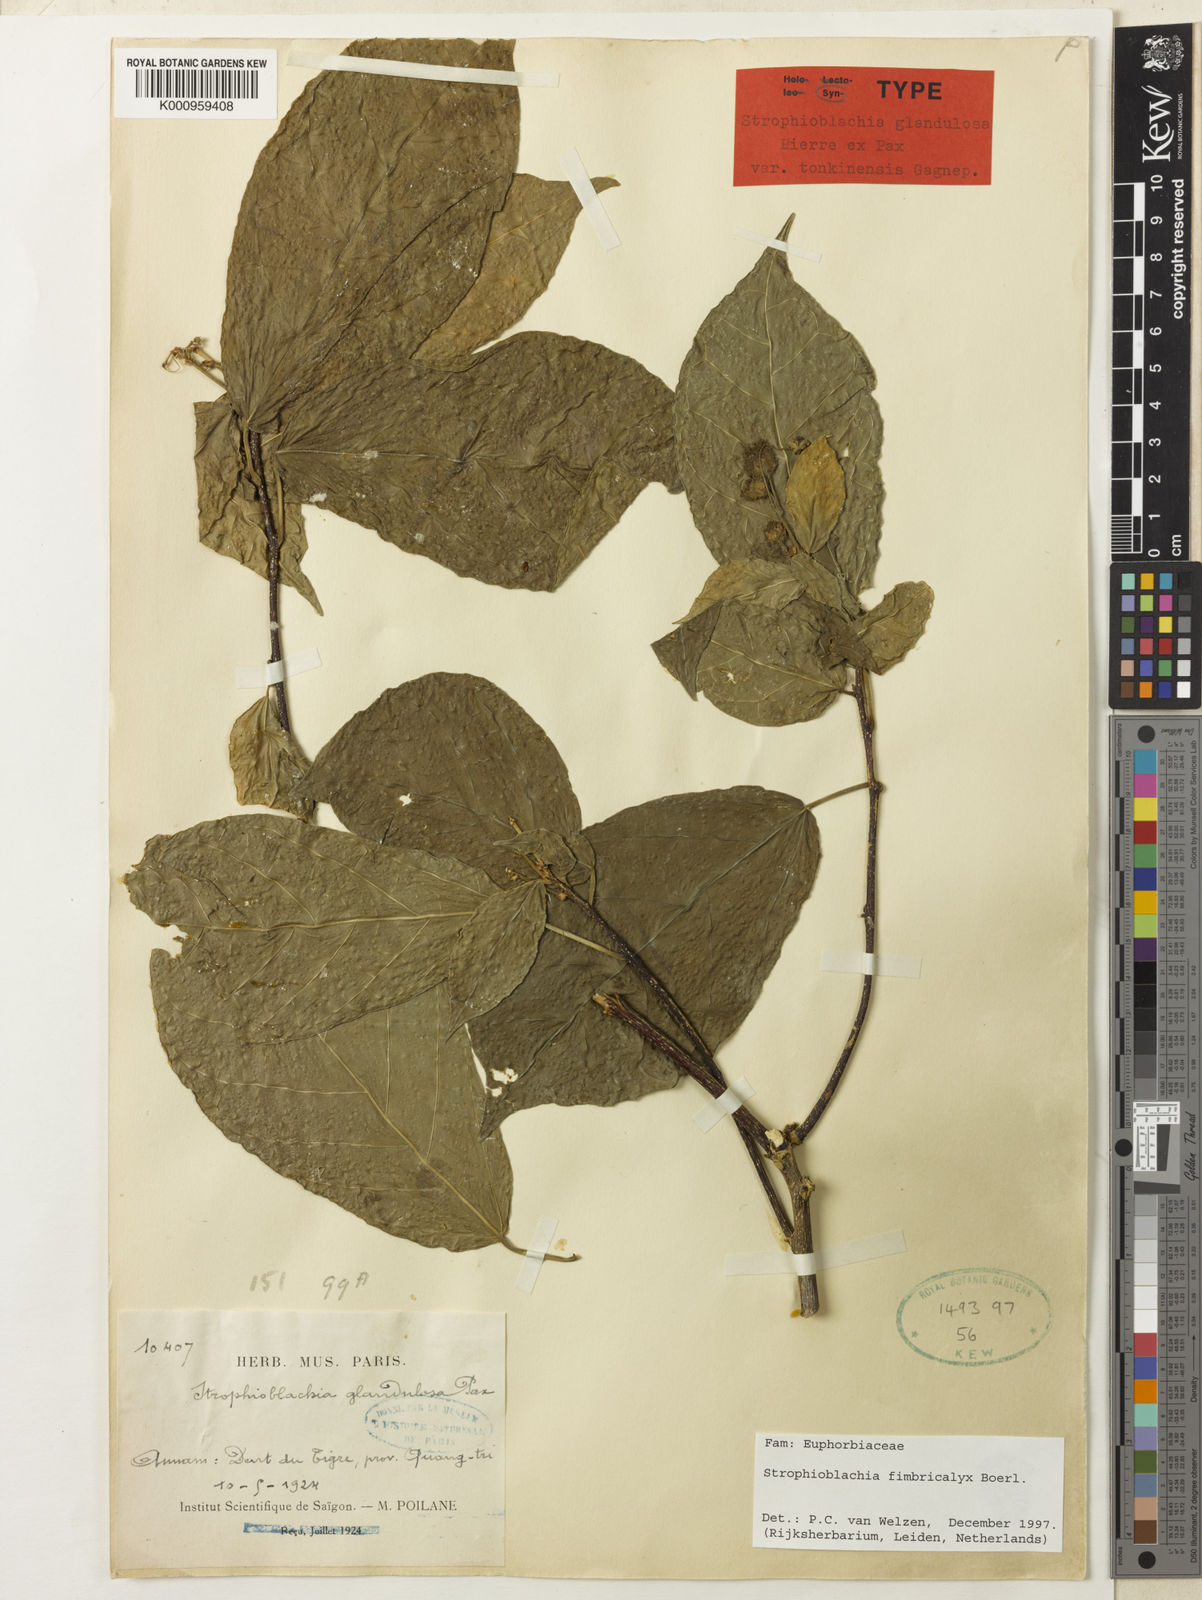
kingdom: Plantae
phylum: Tracheophyta
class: Magnoliopsida
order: Malpighiales
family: Euphorbiaceae
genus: Strophioblachia
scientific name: Strophioblachia fimbricalyx
